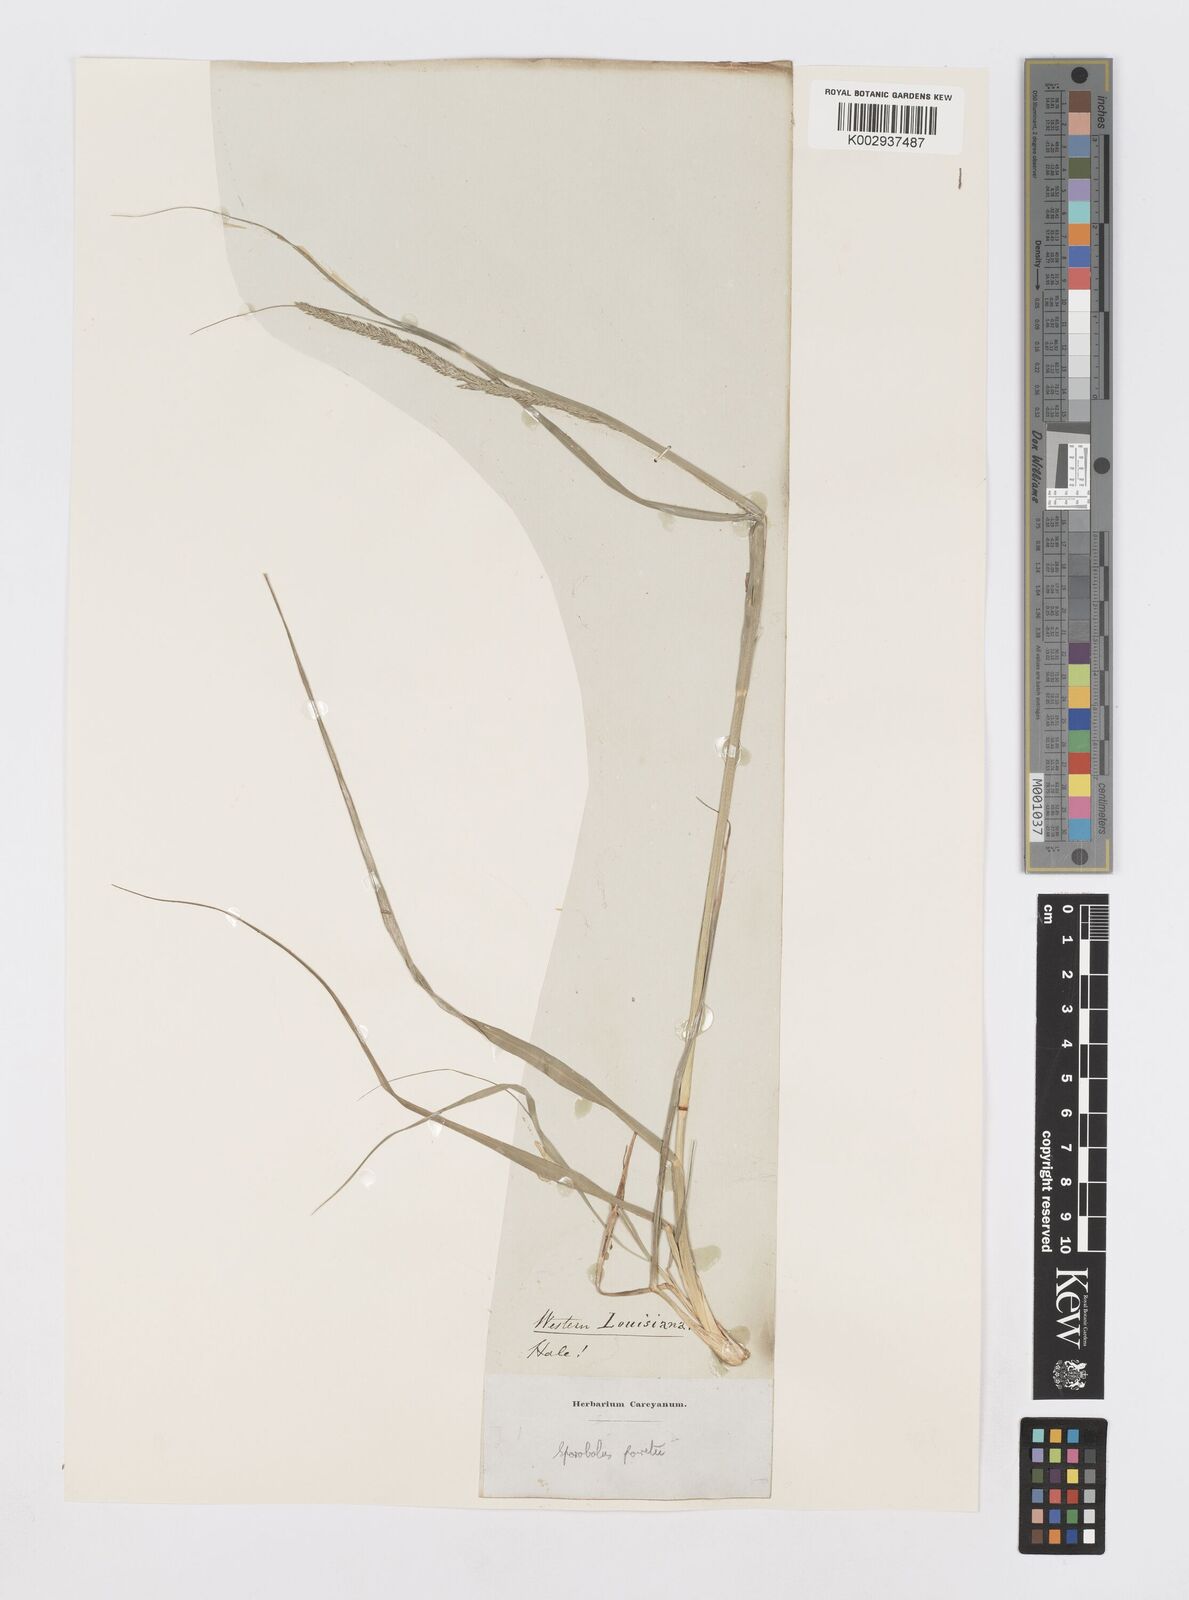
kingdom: Plantae
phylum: Tracheophyta
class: Liliopsida
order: Poales
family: Poaceae
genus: Sporobolus
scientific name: Sporobolus junceus
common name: Lizard grass
